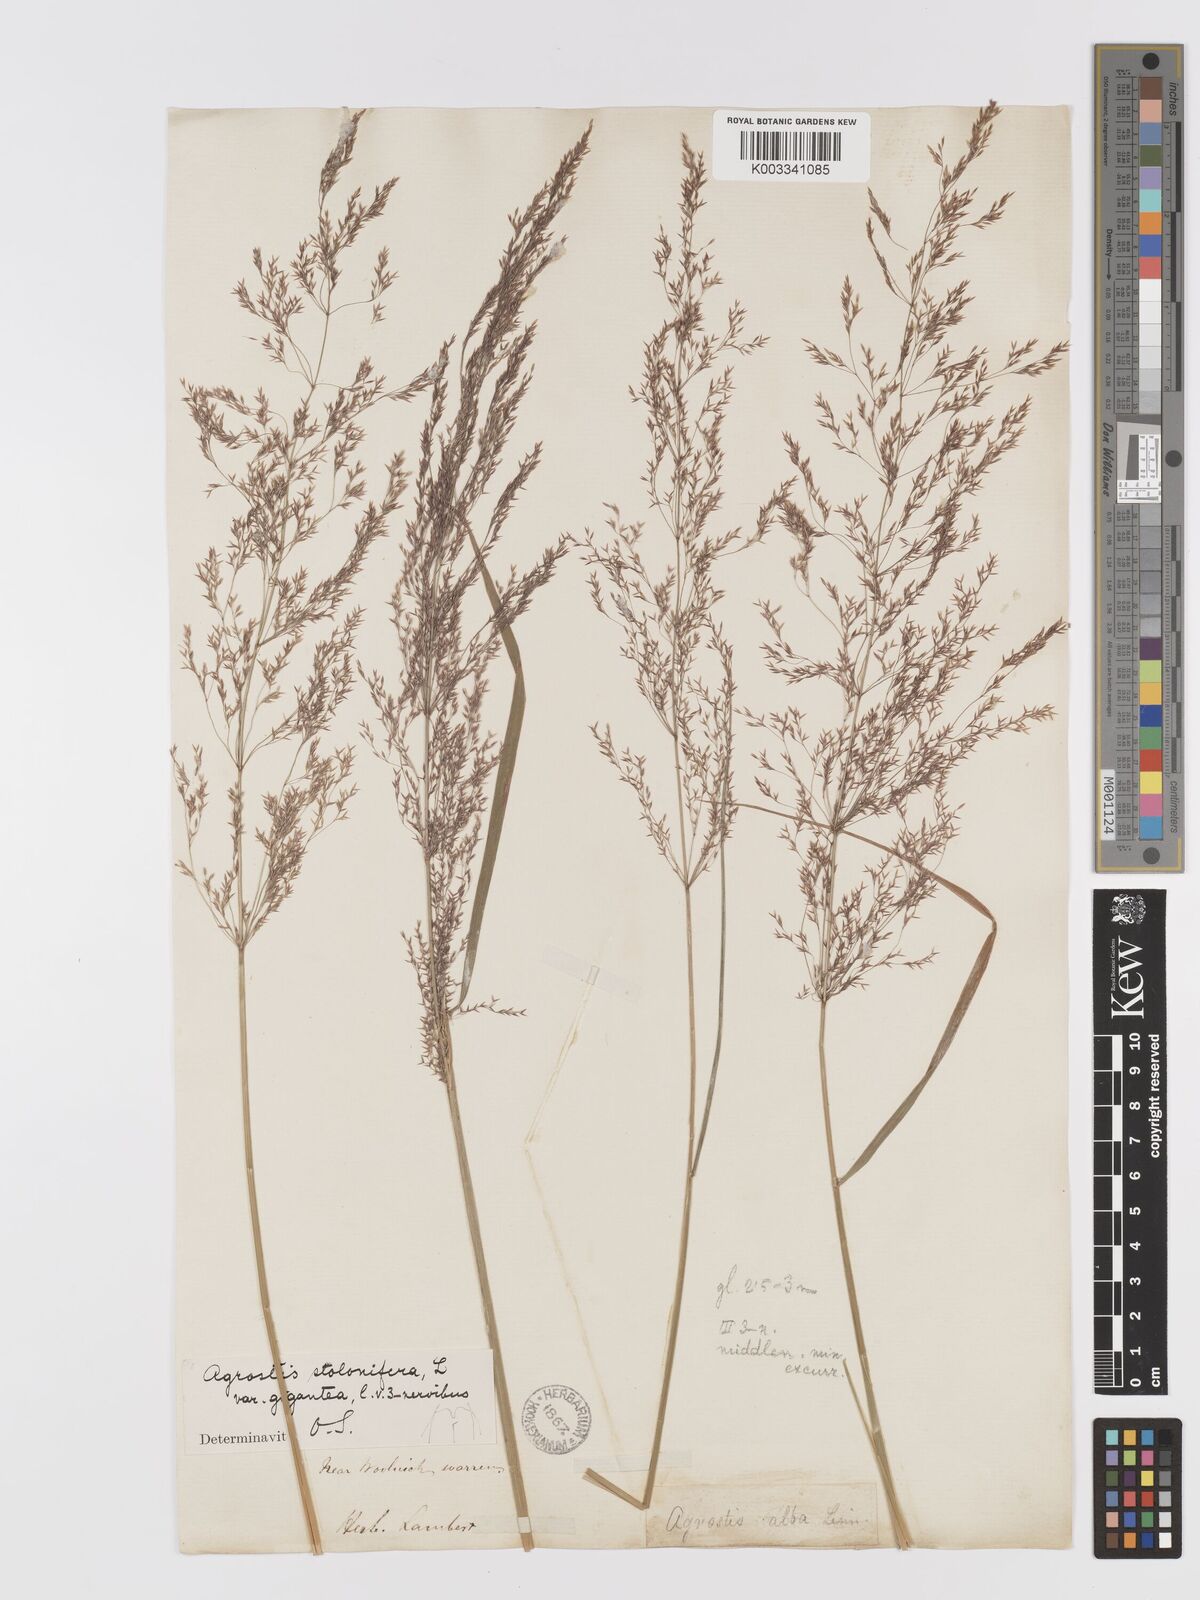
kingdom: Plantae
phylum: Tracheophyta
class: Liliopsida
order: Poales
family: Poaceae
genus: Agrostis
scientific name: Agrostis gigantea
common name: Black bent
